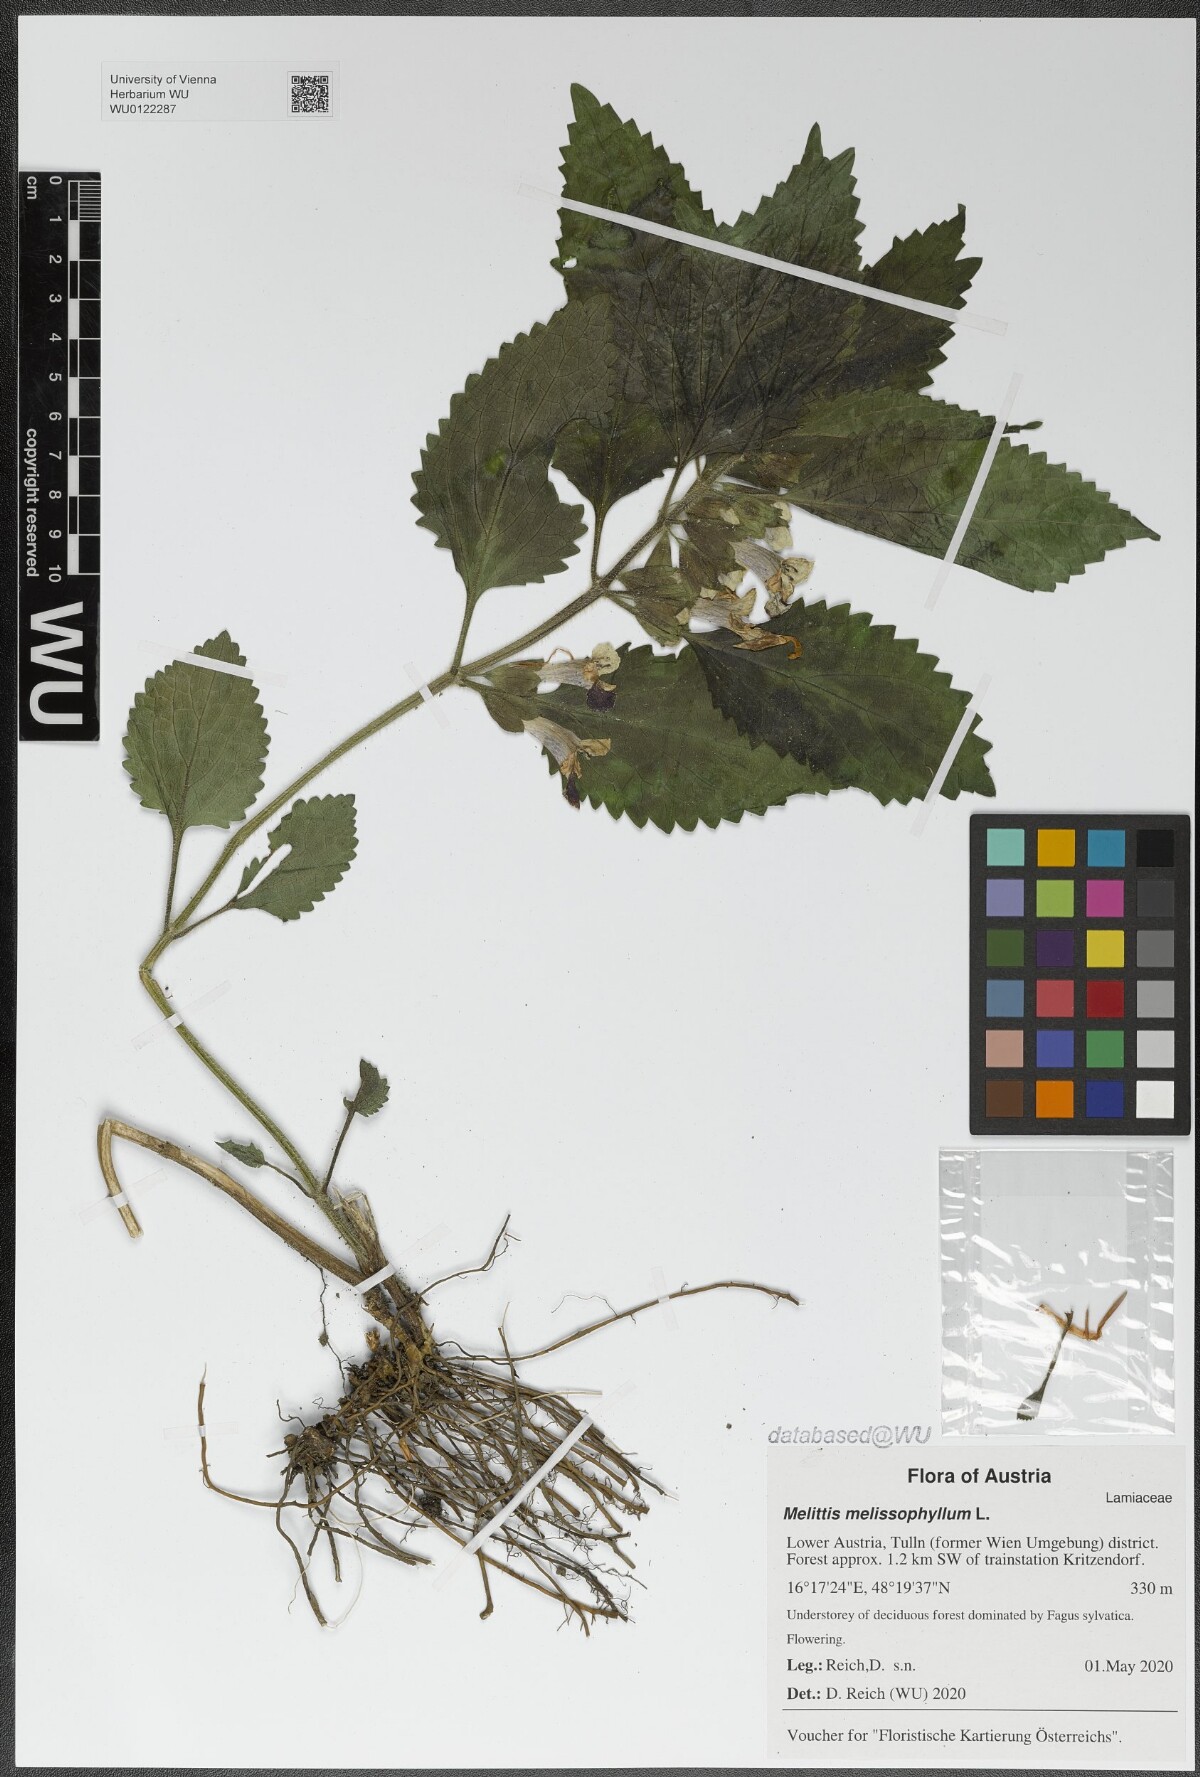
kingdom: Plantae
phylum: Tracheophyta
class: Magnoliopsida
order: Lamiales
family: Lamiaceae
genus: Melittis
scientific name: Melittis melissophyllum
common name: Bastard balm
